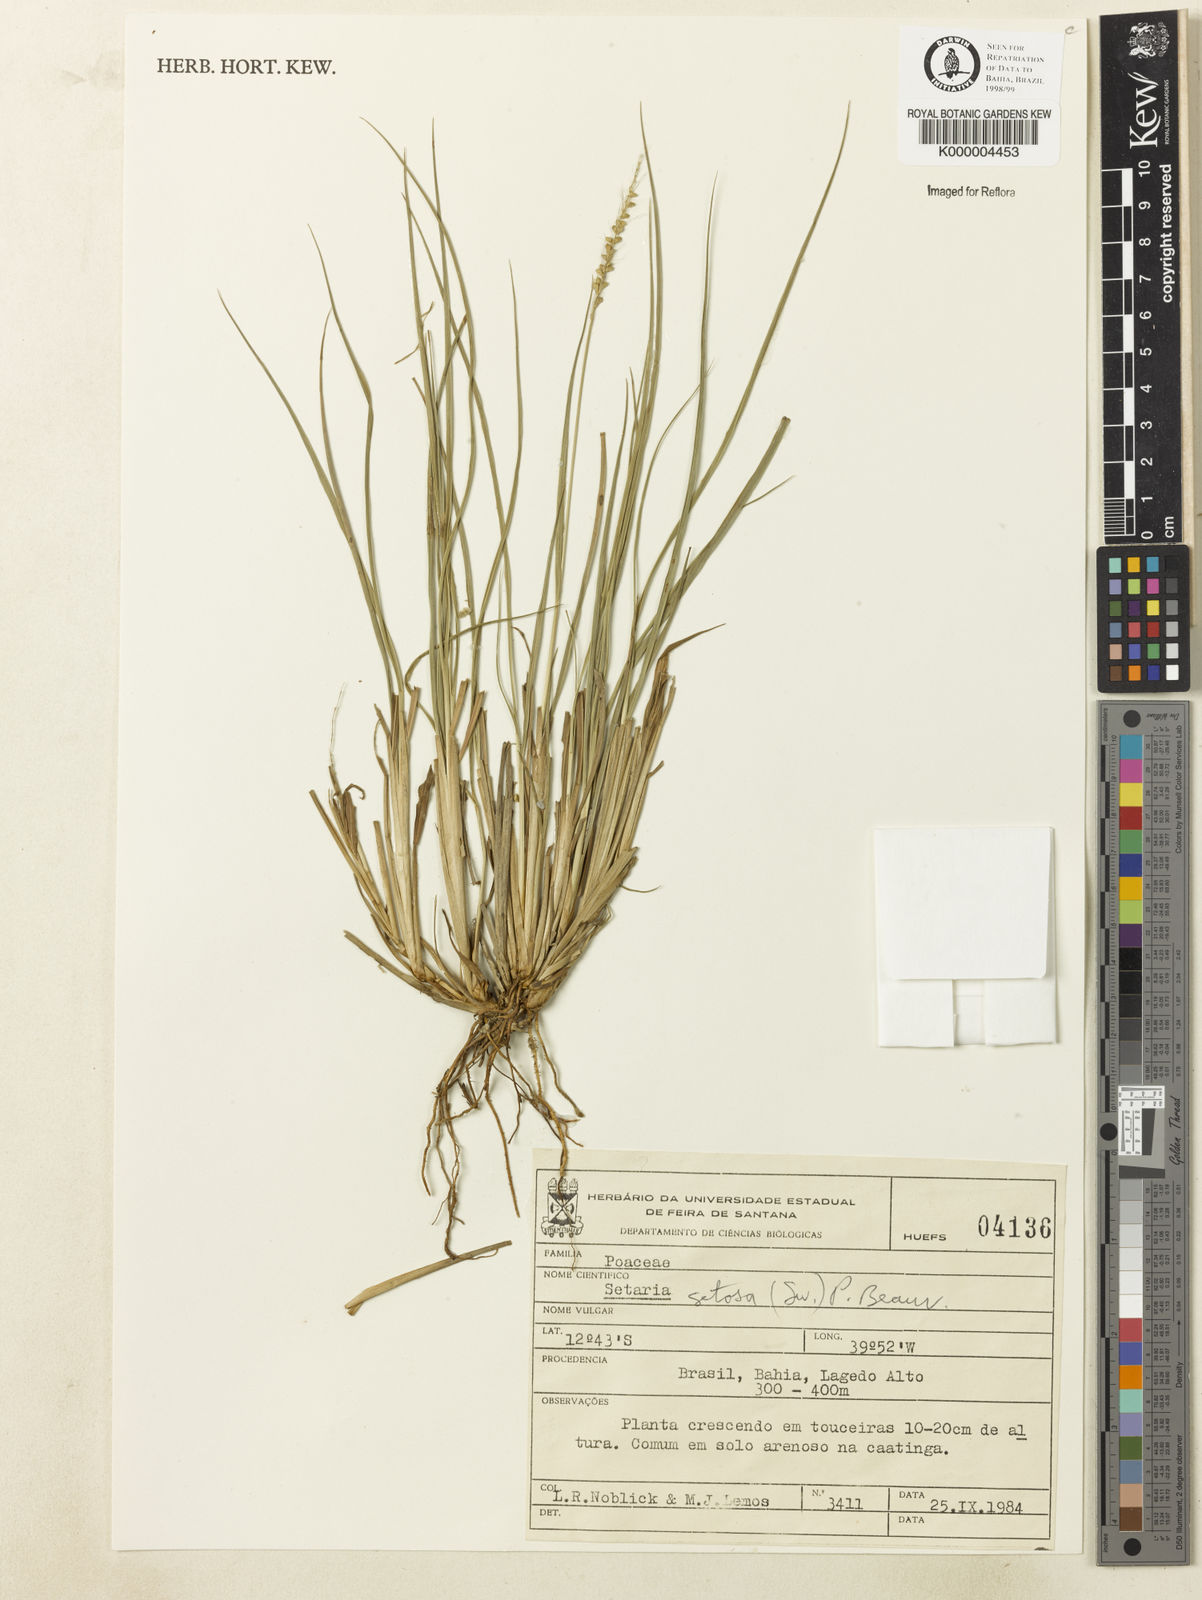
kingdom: Plantae
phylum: Tracheophyta
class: Liliopsida
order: Poales
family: Poaceae
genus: Setaria
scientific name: Setaria setosa
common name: West indies bristle grass
